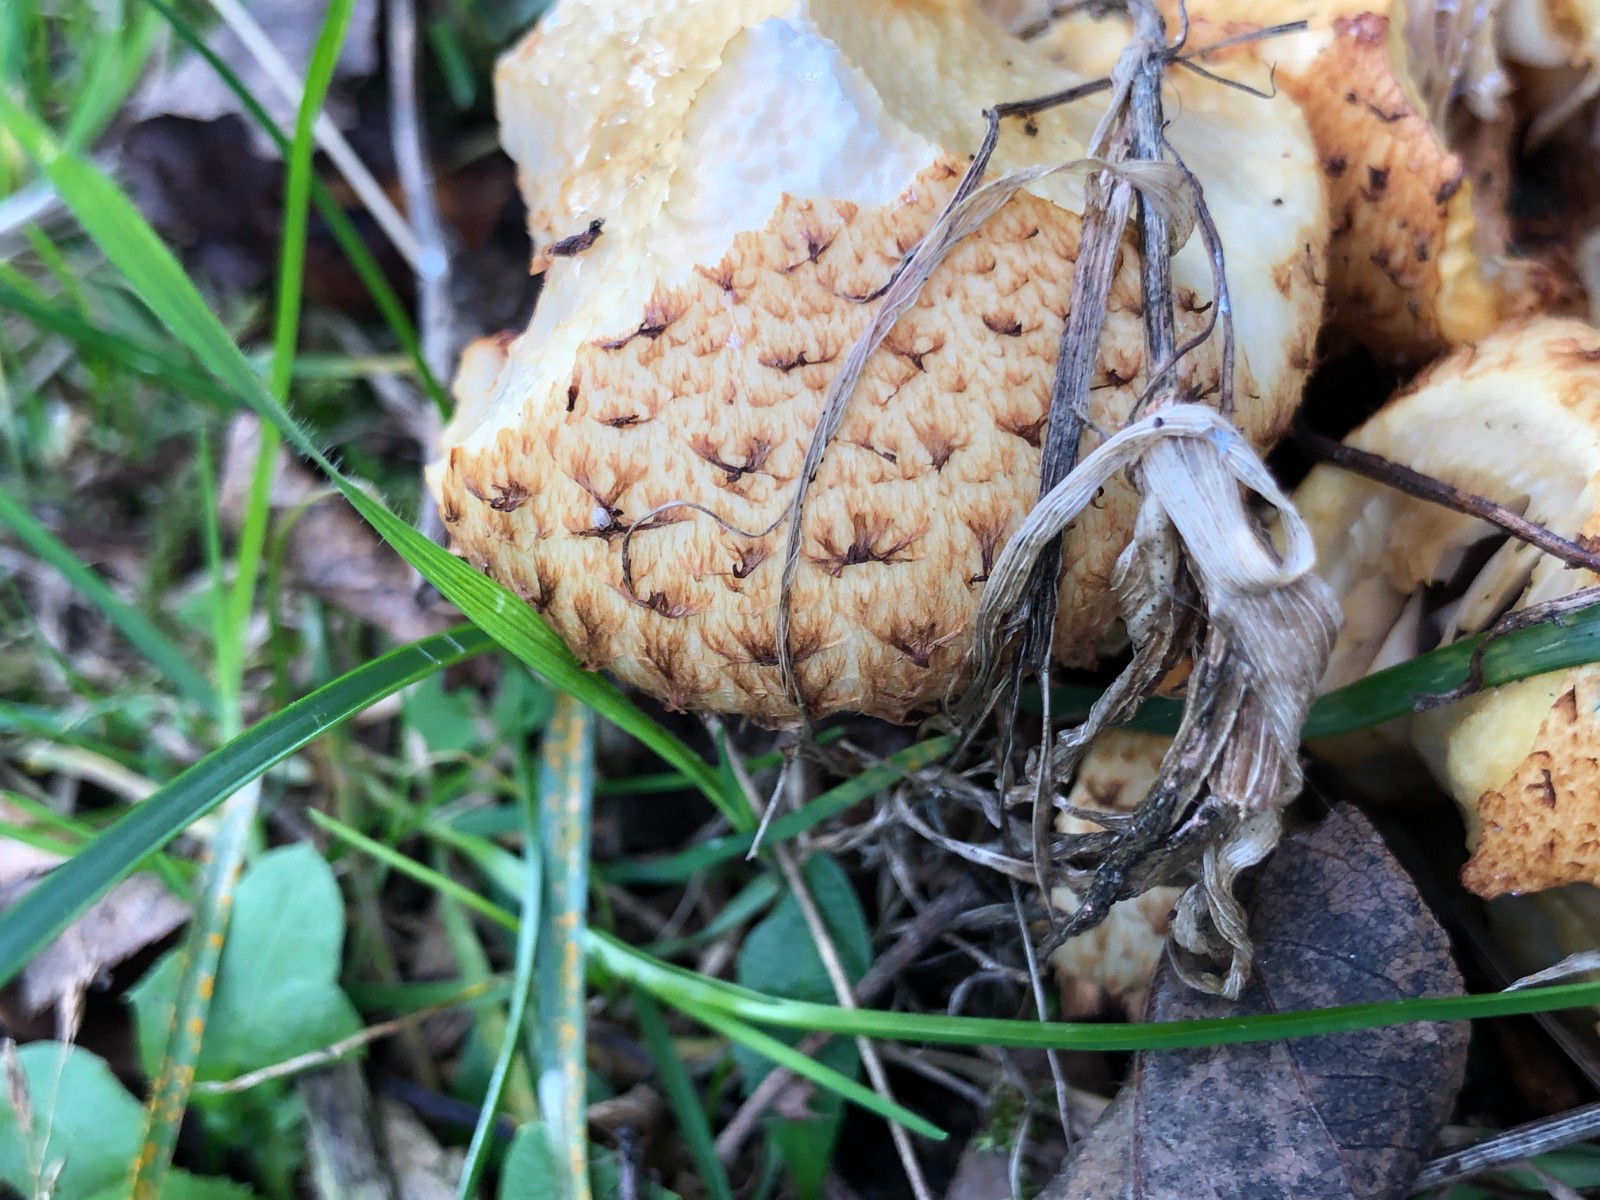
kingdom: Fungi
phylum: Basidiomycota
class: Agaricomycetes
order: Agaricales
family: Strophariaceae
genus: Pholiota
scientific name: Pholiota squarrosa
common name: krumskællet skælhat
